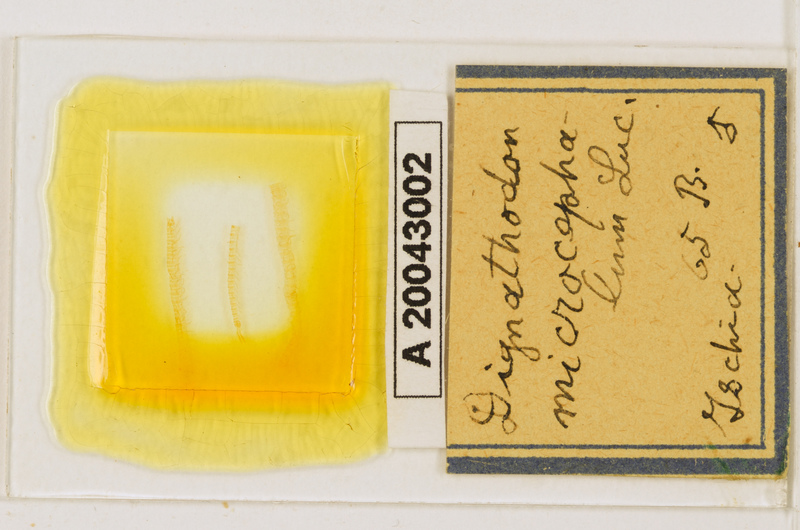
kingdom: Animalia
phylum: Arthropoda
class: Chilopoda
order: Geophilomorpha
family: Dignathodontidae
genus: Dignathodon
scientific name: Dignathodon microcephalus
